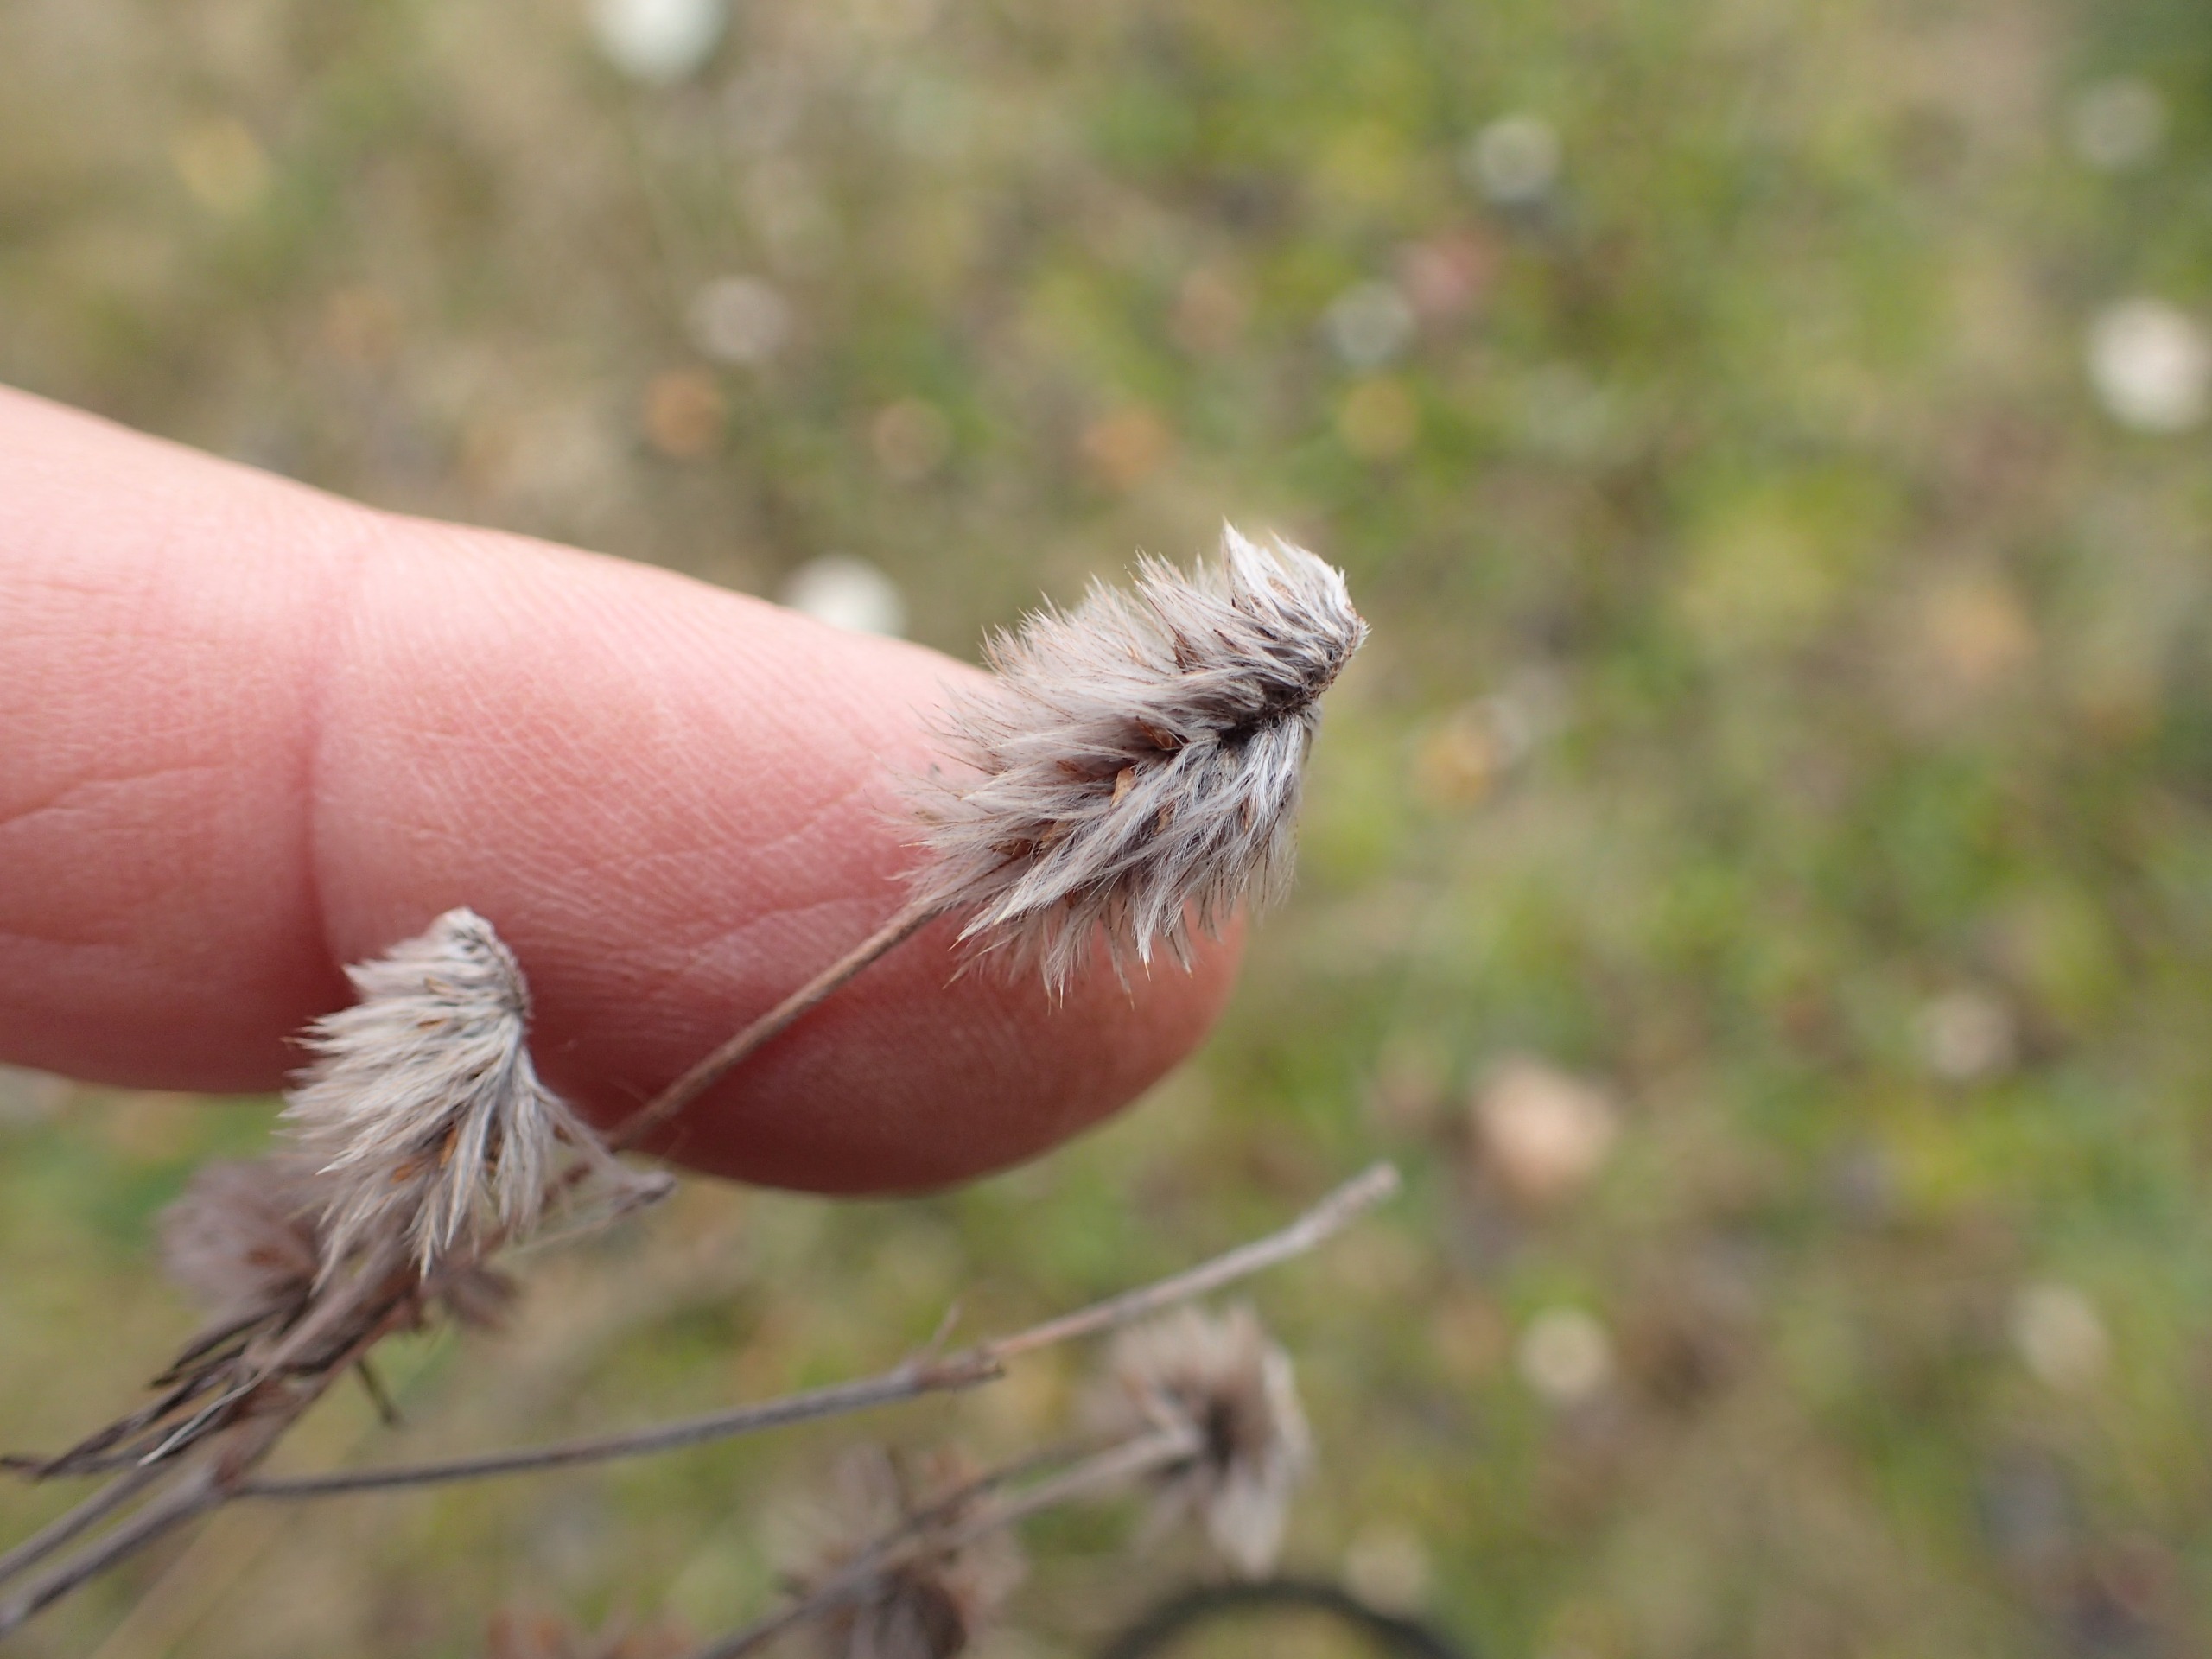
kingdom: Plantae
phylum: Tracheophyta
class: Magnoliopsida
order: Fabales
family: Fabaceae
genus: Trifolium
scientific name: Trifolium arvense
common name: Hare-kløver
